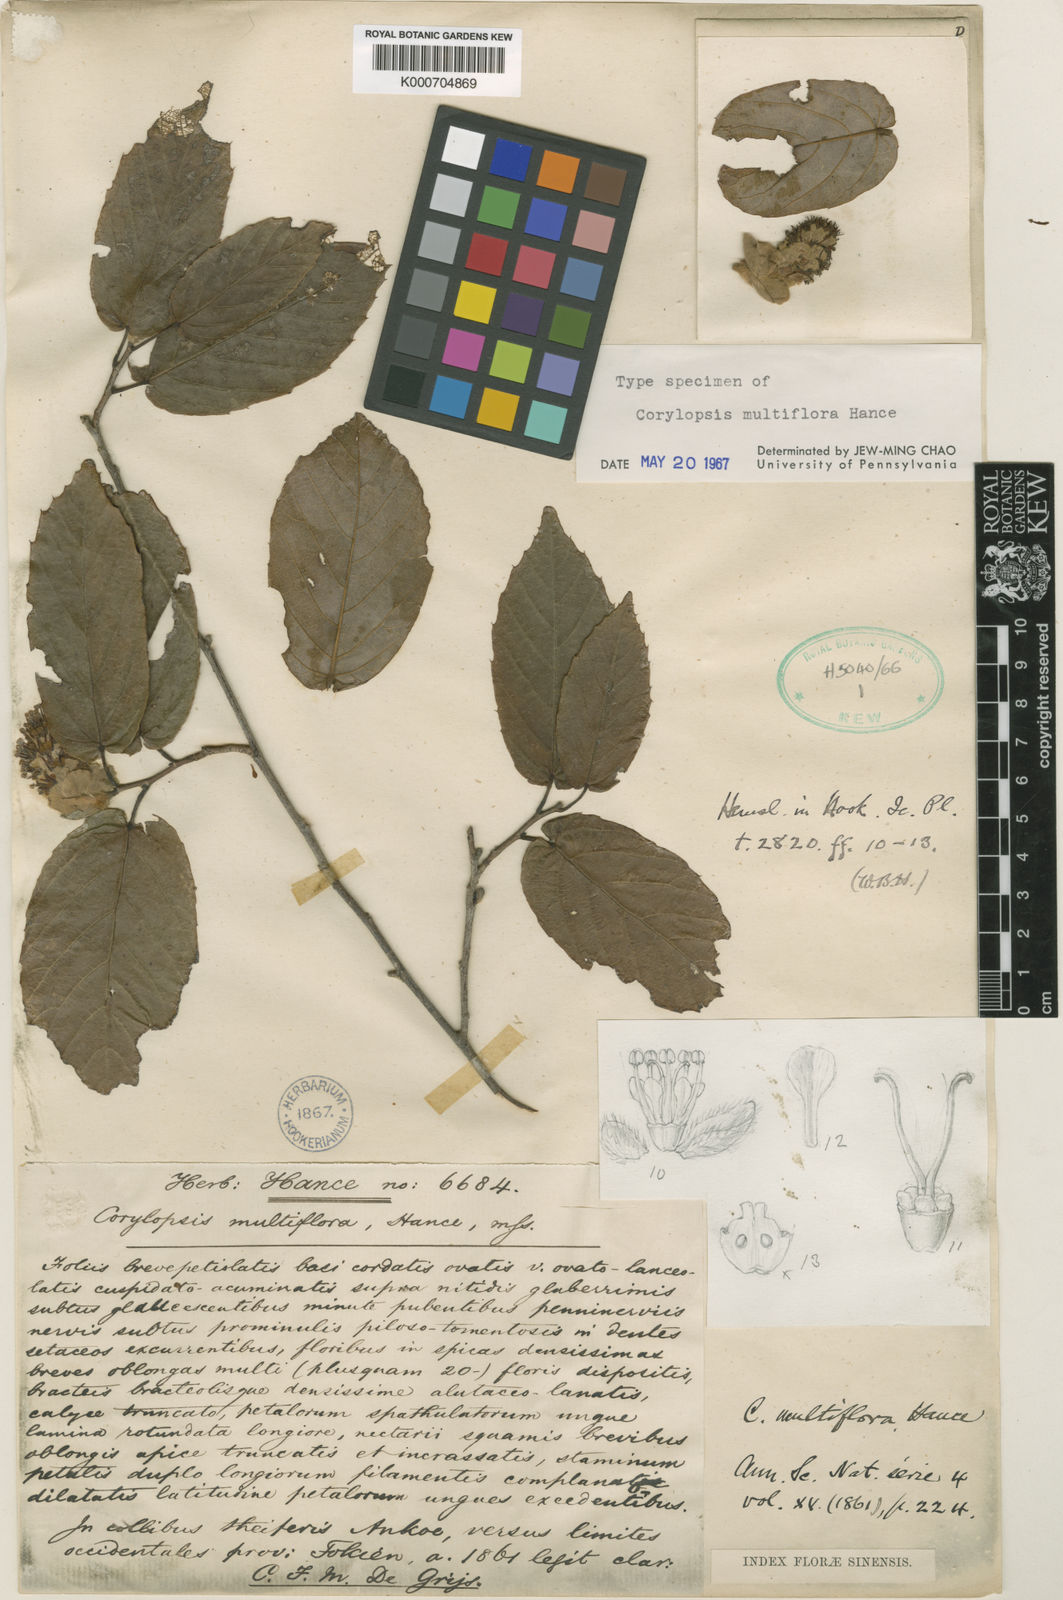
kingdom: Plantae
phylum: Tracheophyta
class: Magnoliopsida
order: Saxifragales
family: Hamamelidaceae
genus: Corylopsis
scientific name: Corylopsis multiflora
